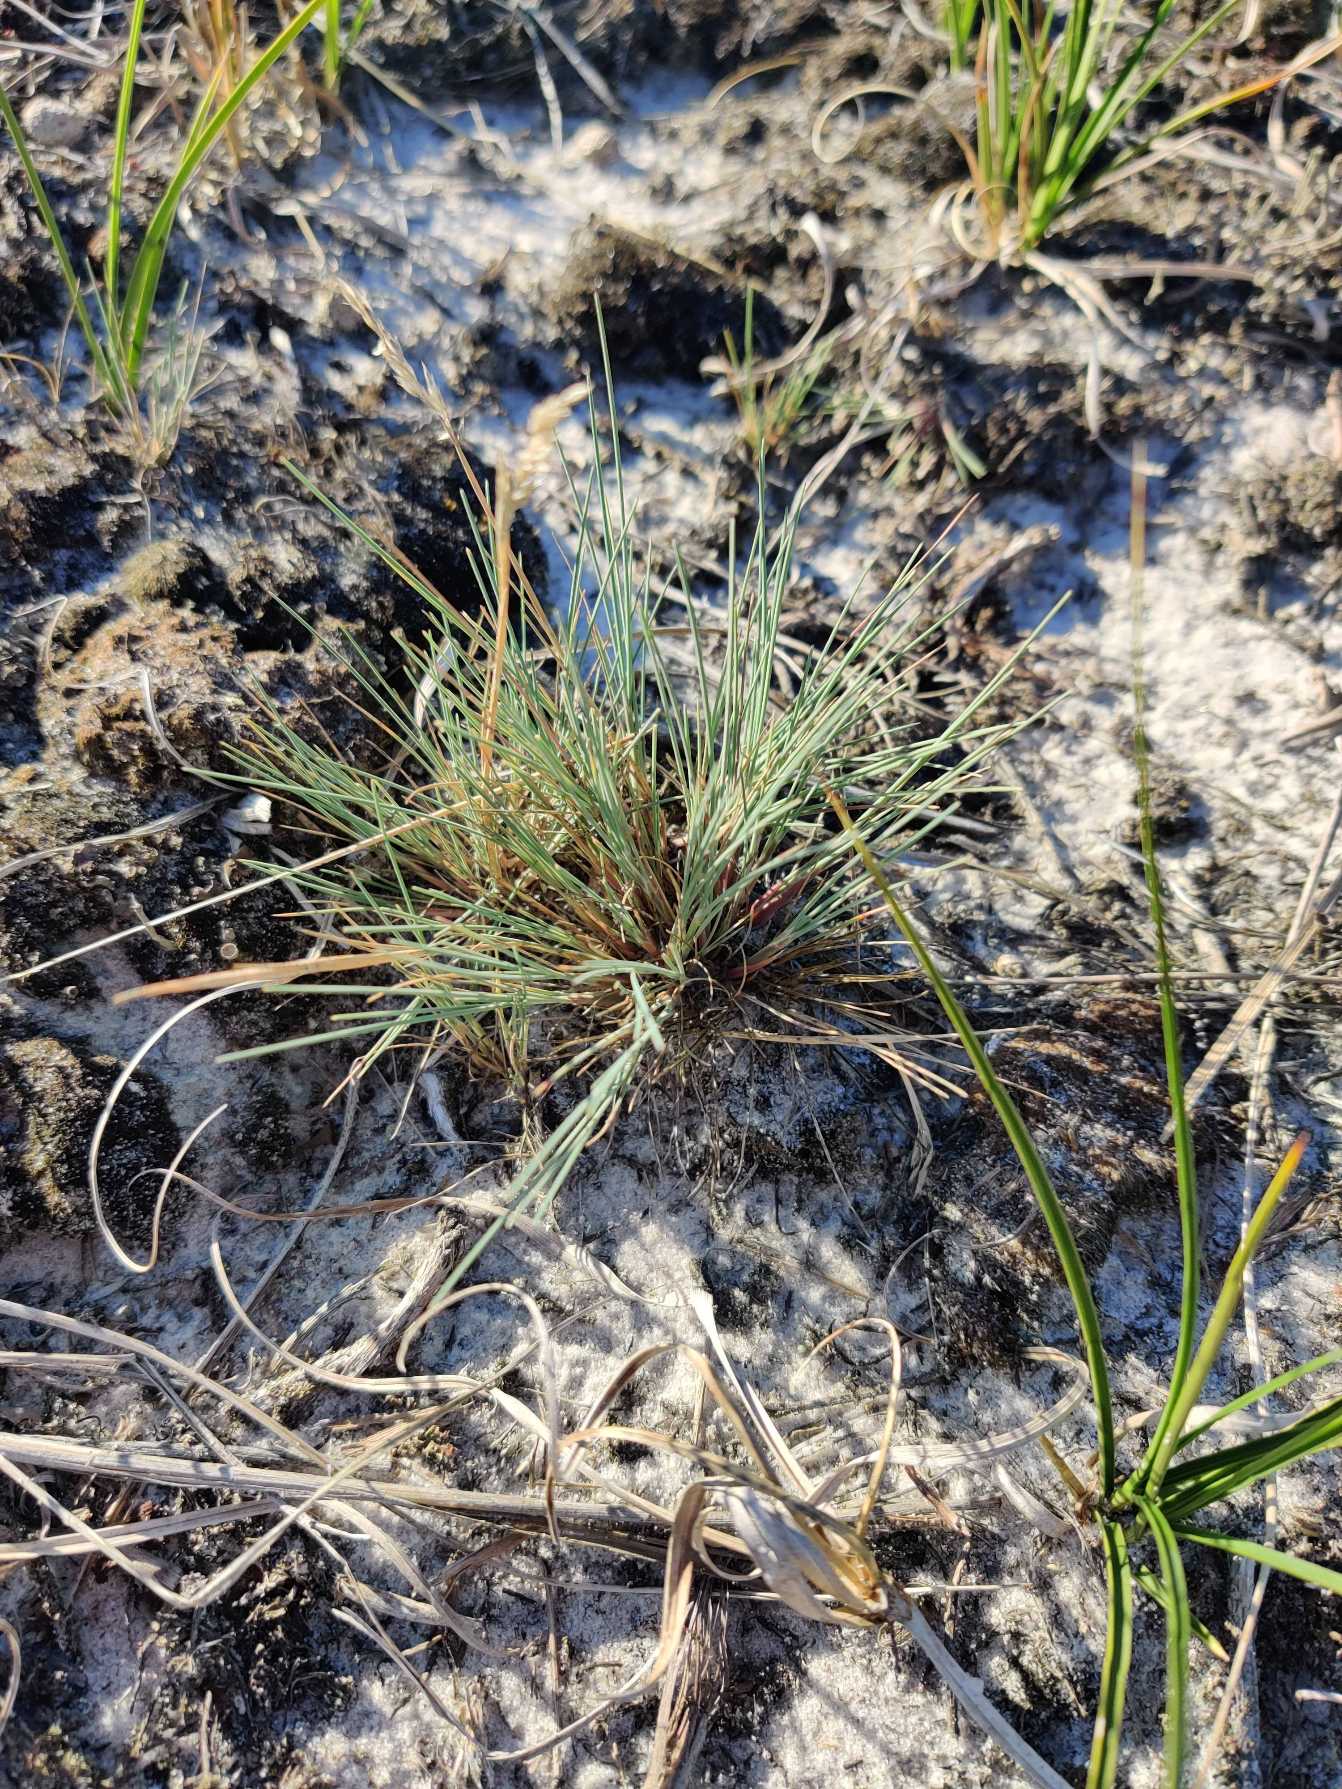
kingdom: Plantae
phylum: Tracheophyta
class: Liliopsida
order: Poales
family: Poaceae
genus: Corynephorus
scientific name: Corynephorus canescens
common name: Sandskæg
